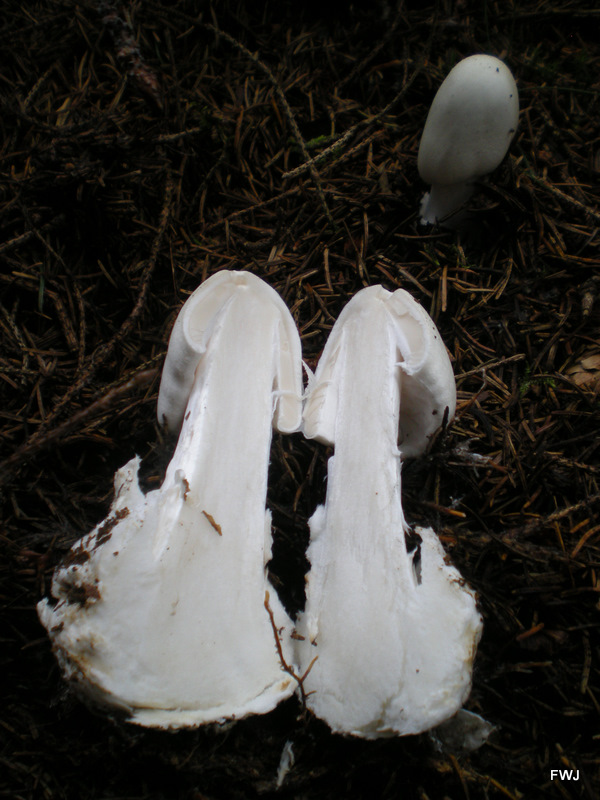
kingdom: Fungi
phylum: Basidiomycota
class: Agaricomycetes
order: Agaricales
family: Amanitaceae
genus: Amanita
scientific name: Amanita virosa
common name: snehvid fluesvamp
